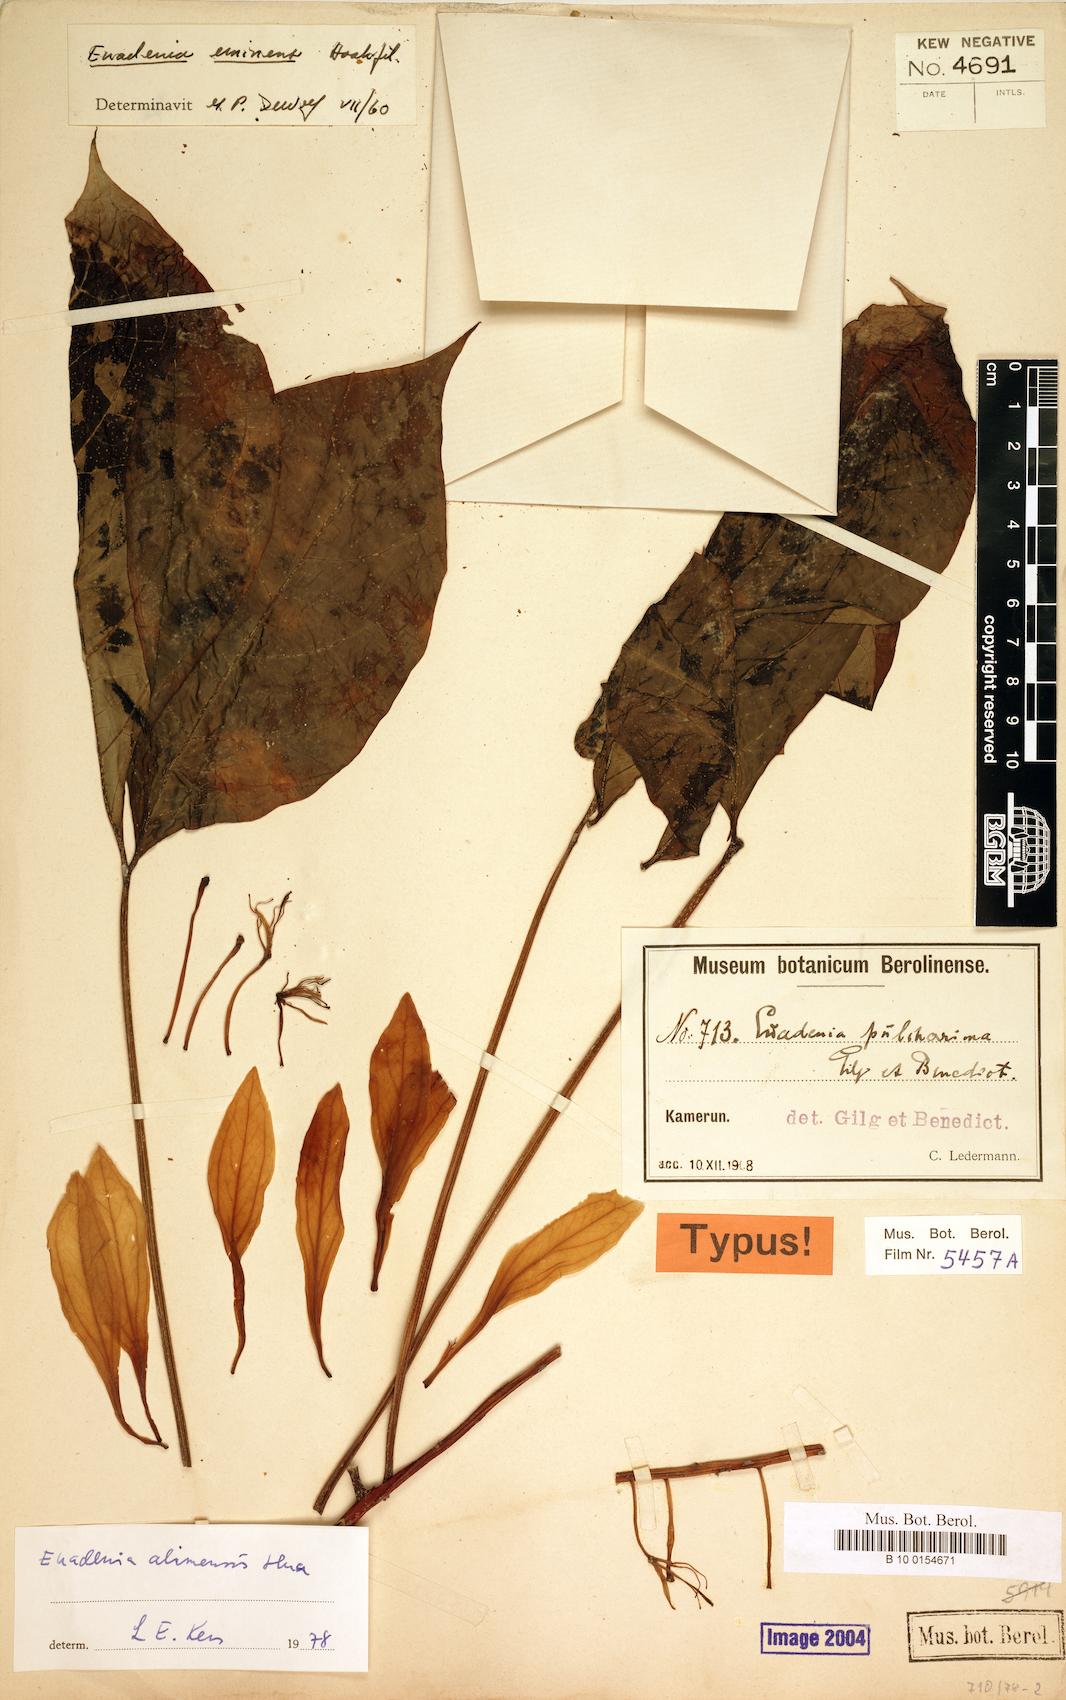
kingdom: Plantae
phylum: Tracheophyta
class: Magnoliopsida
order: Brassicales
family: Capparaceae
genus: Euadenia
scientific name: Euadenia eminens
